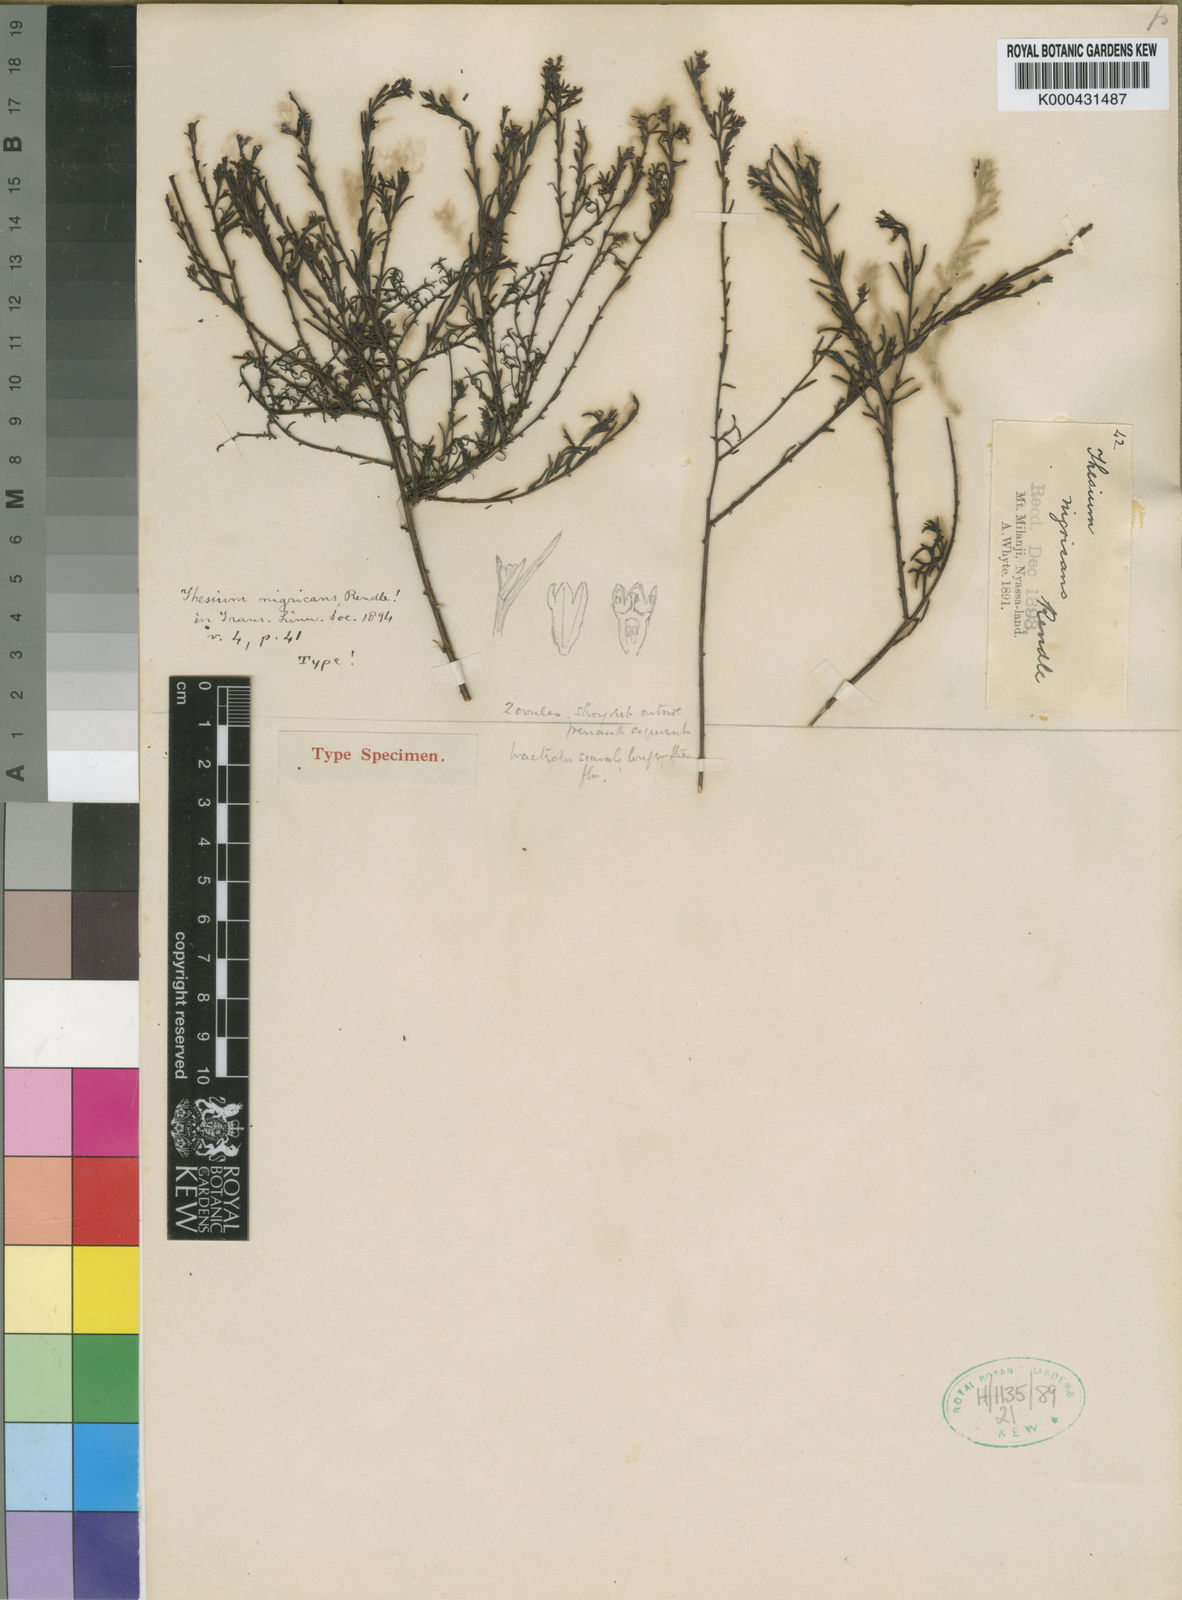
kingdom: Plantae
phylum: Tracheophyta
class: Magnoliopsida
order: Santalales
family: Thesiaceae
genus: Thesium
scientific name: Thesium nigricans
